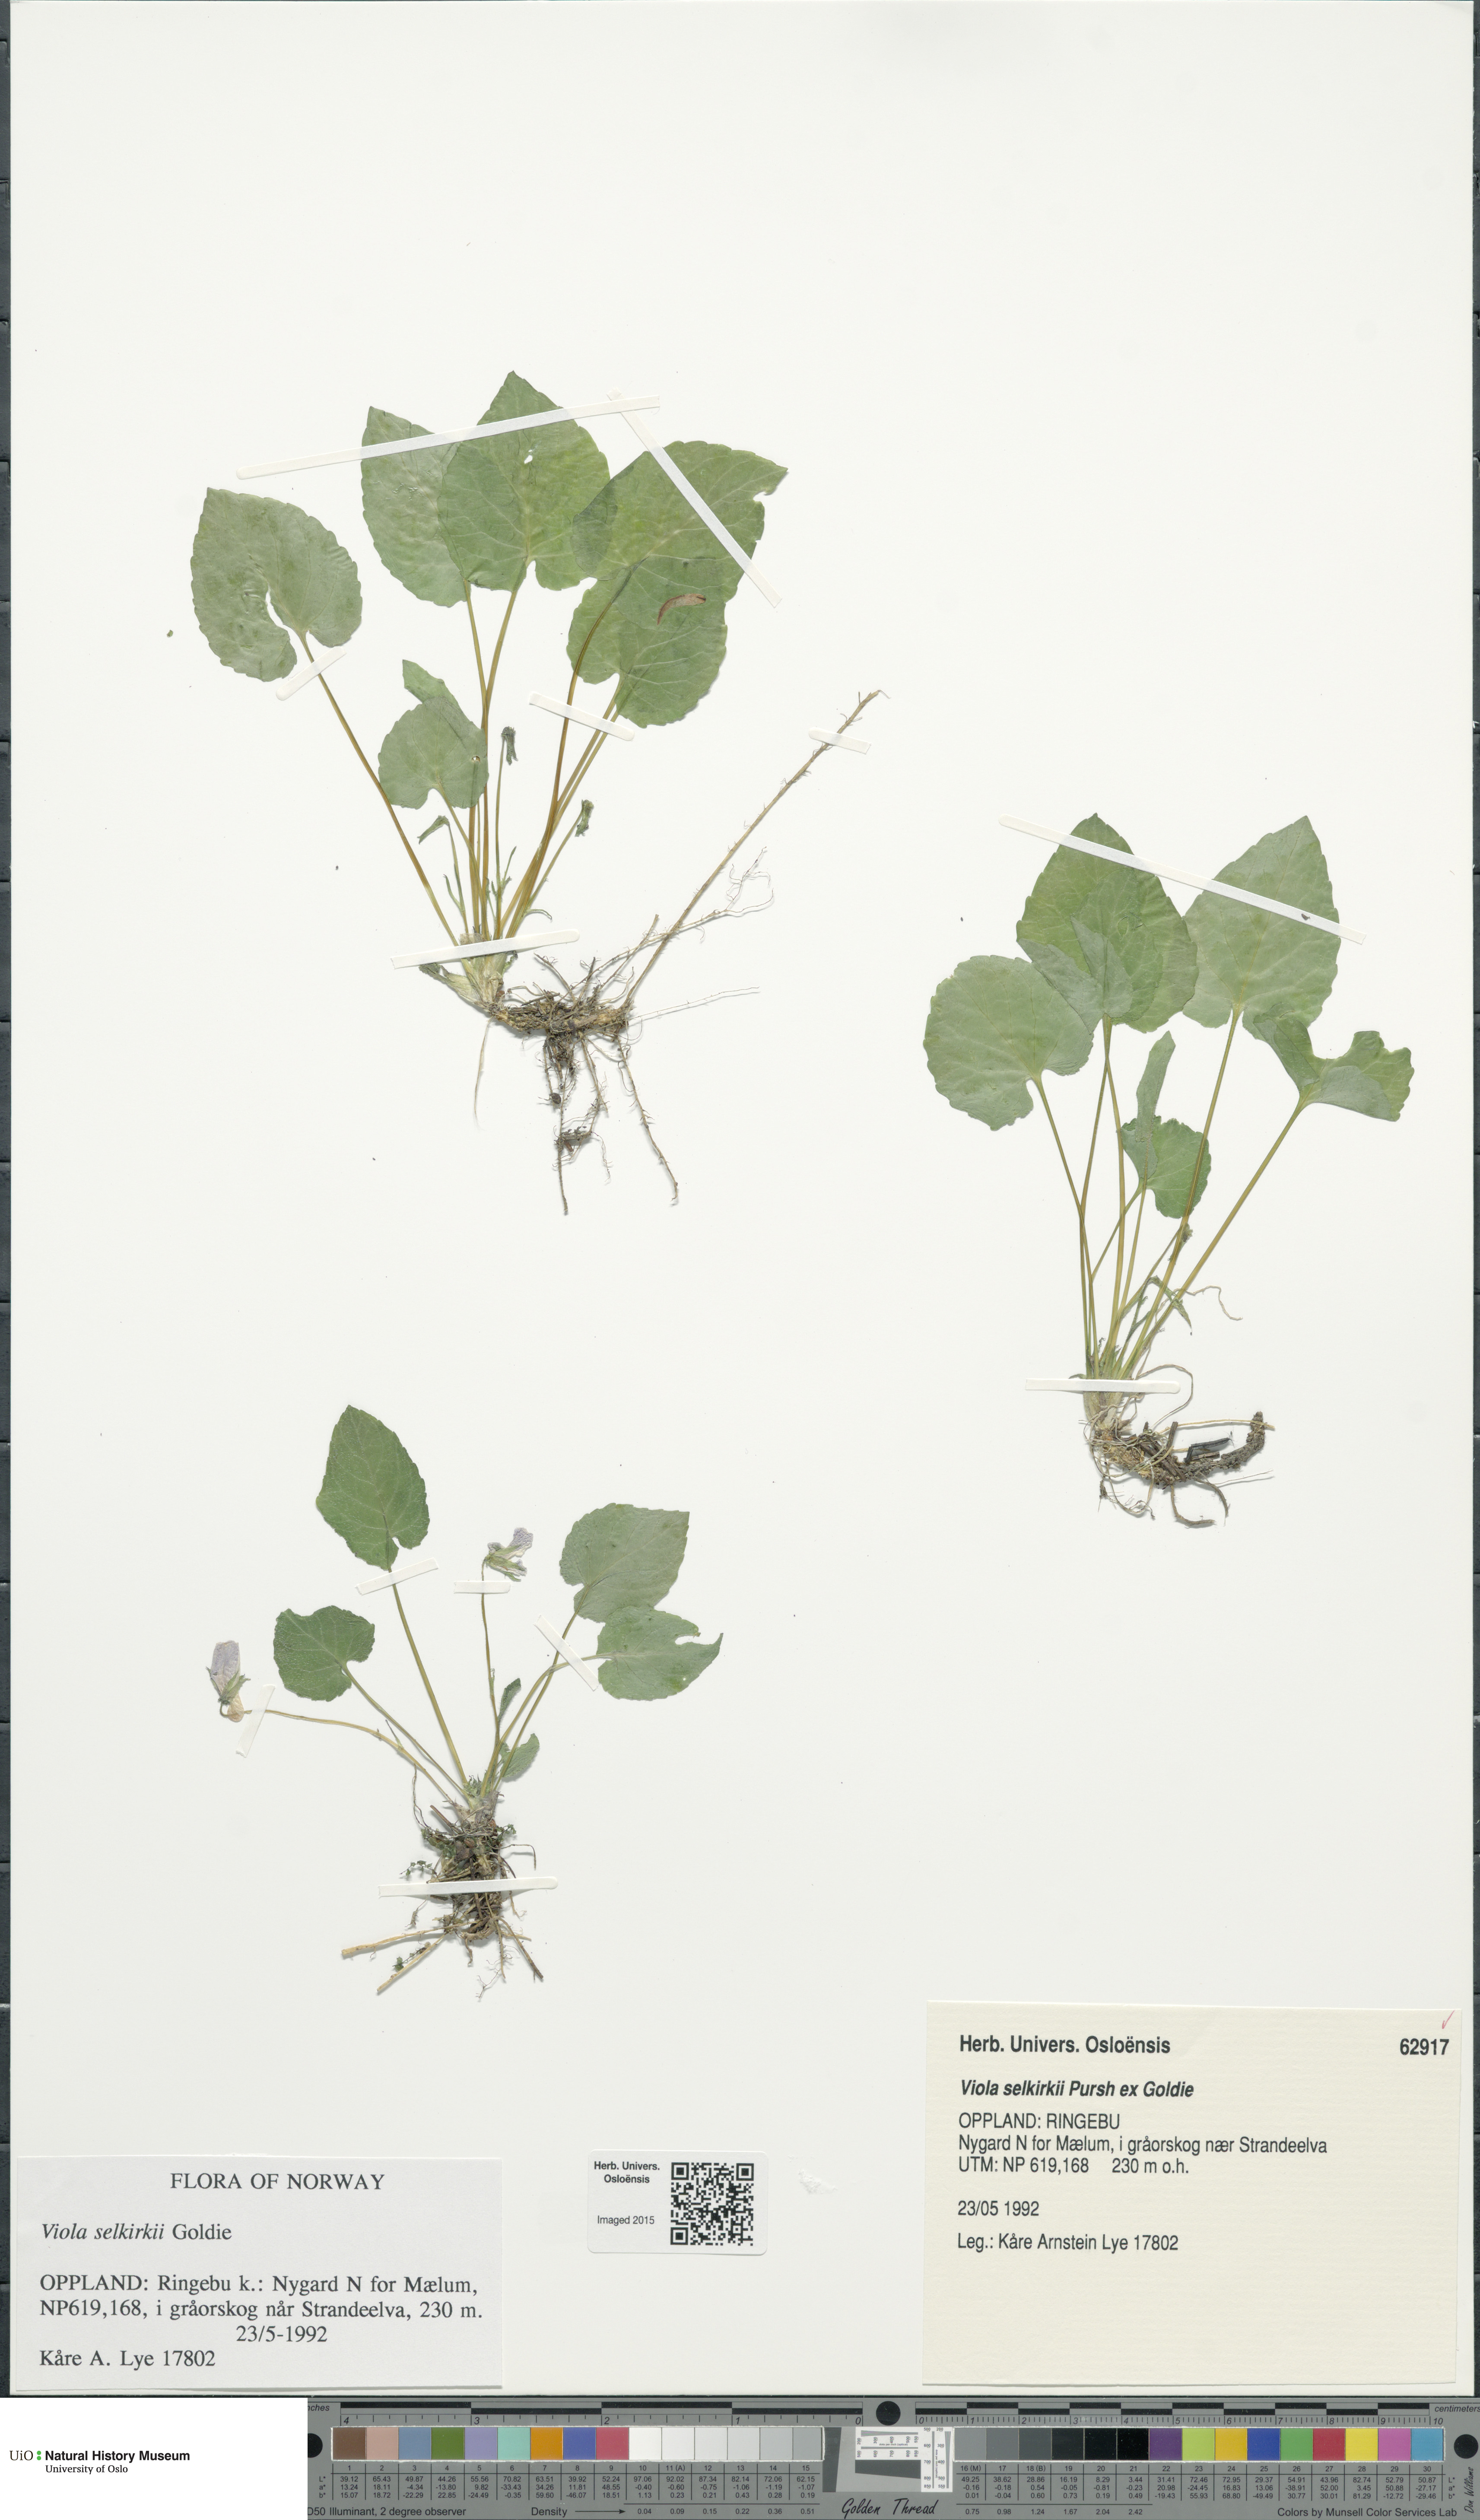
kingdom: Plantae
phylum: Tracheophyta
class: Magnoliopsida
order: Malpighiales
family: Violaceae
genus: Viola
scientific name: Viola selkirkii
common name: Selkirk's violet
